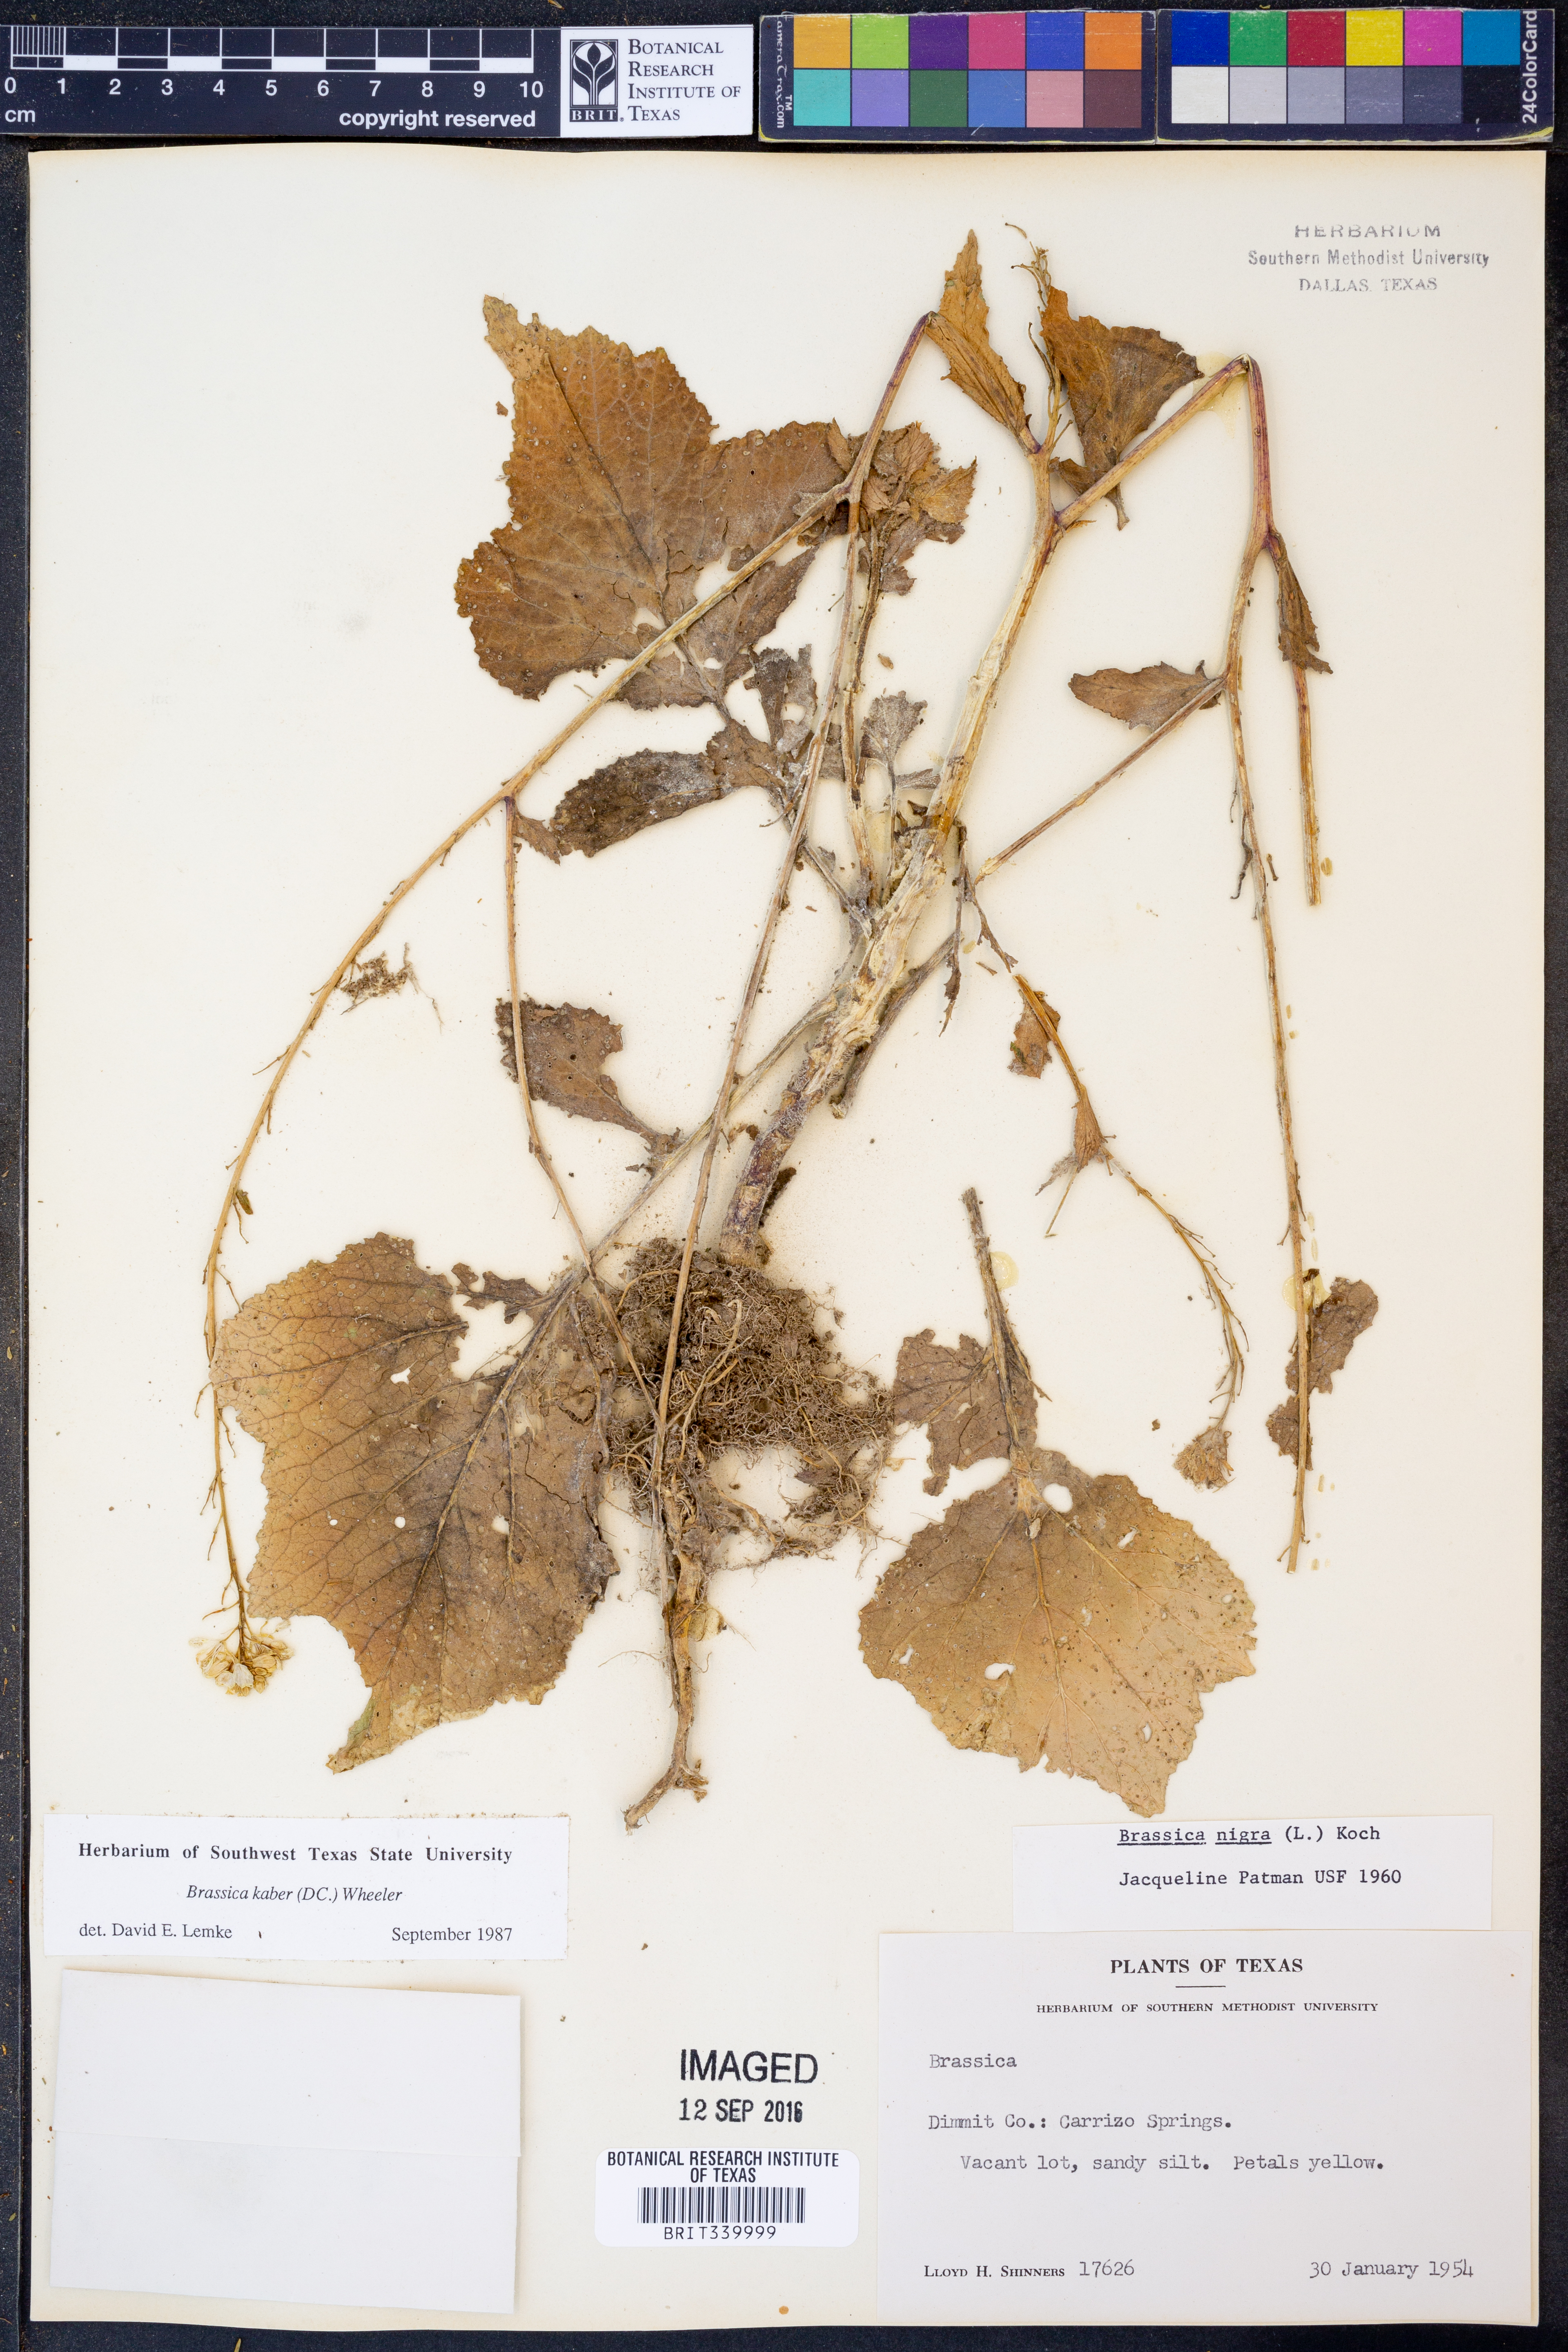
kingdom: Plantae
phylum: Tracheophyta
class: Magnoliopsida
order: Brassicales
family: Brassicaceae
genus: Sinapis
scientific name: Sinapis arvensis
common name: Charlock
